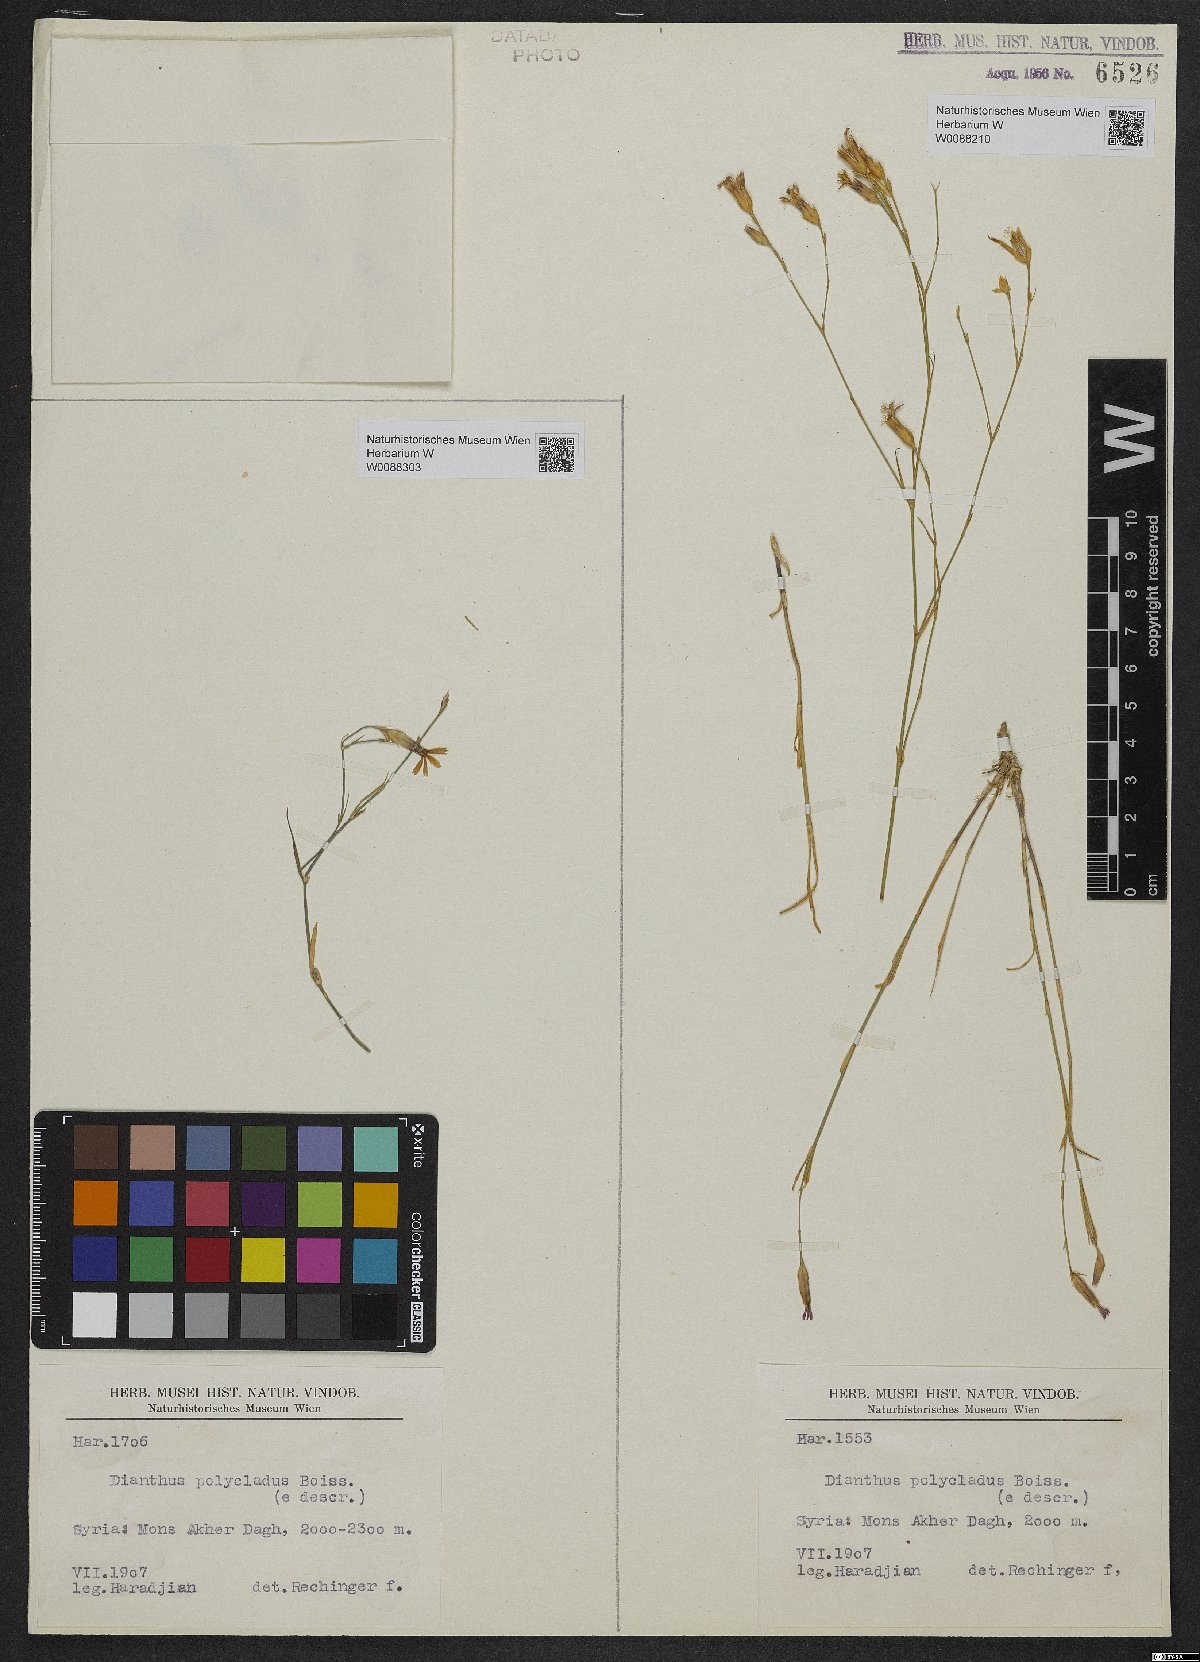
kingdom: Plantae
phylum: Tracheophyta
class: Magnoliopsida
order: Caryophyllales
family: Caryophyllaceae
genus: Dianthus
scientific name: Dianthus strictus
